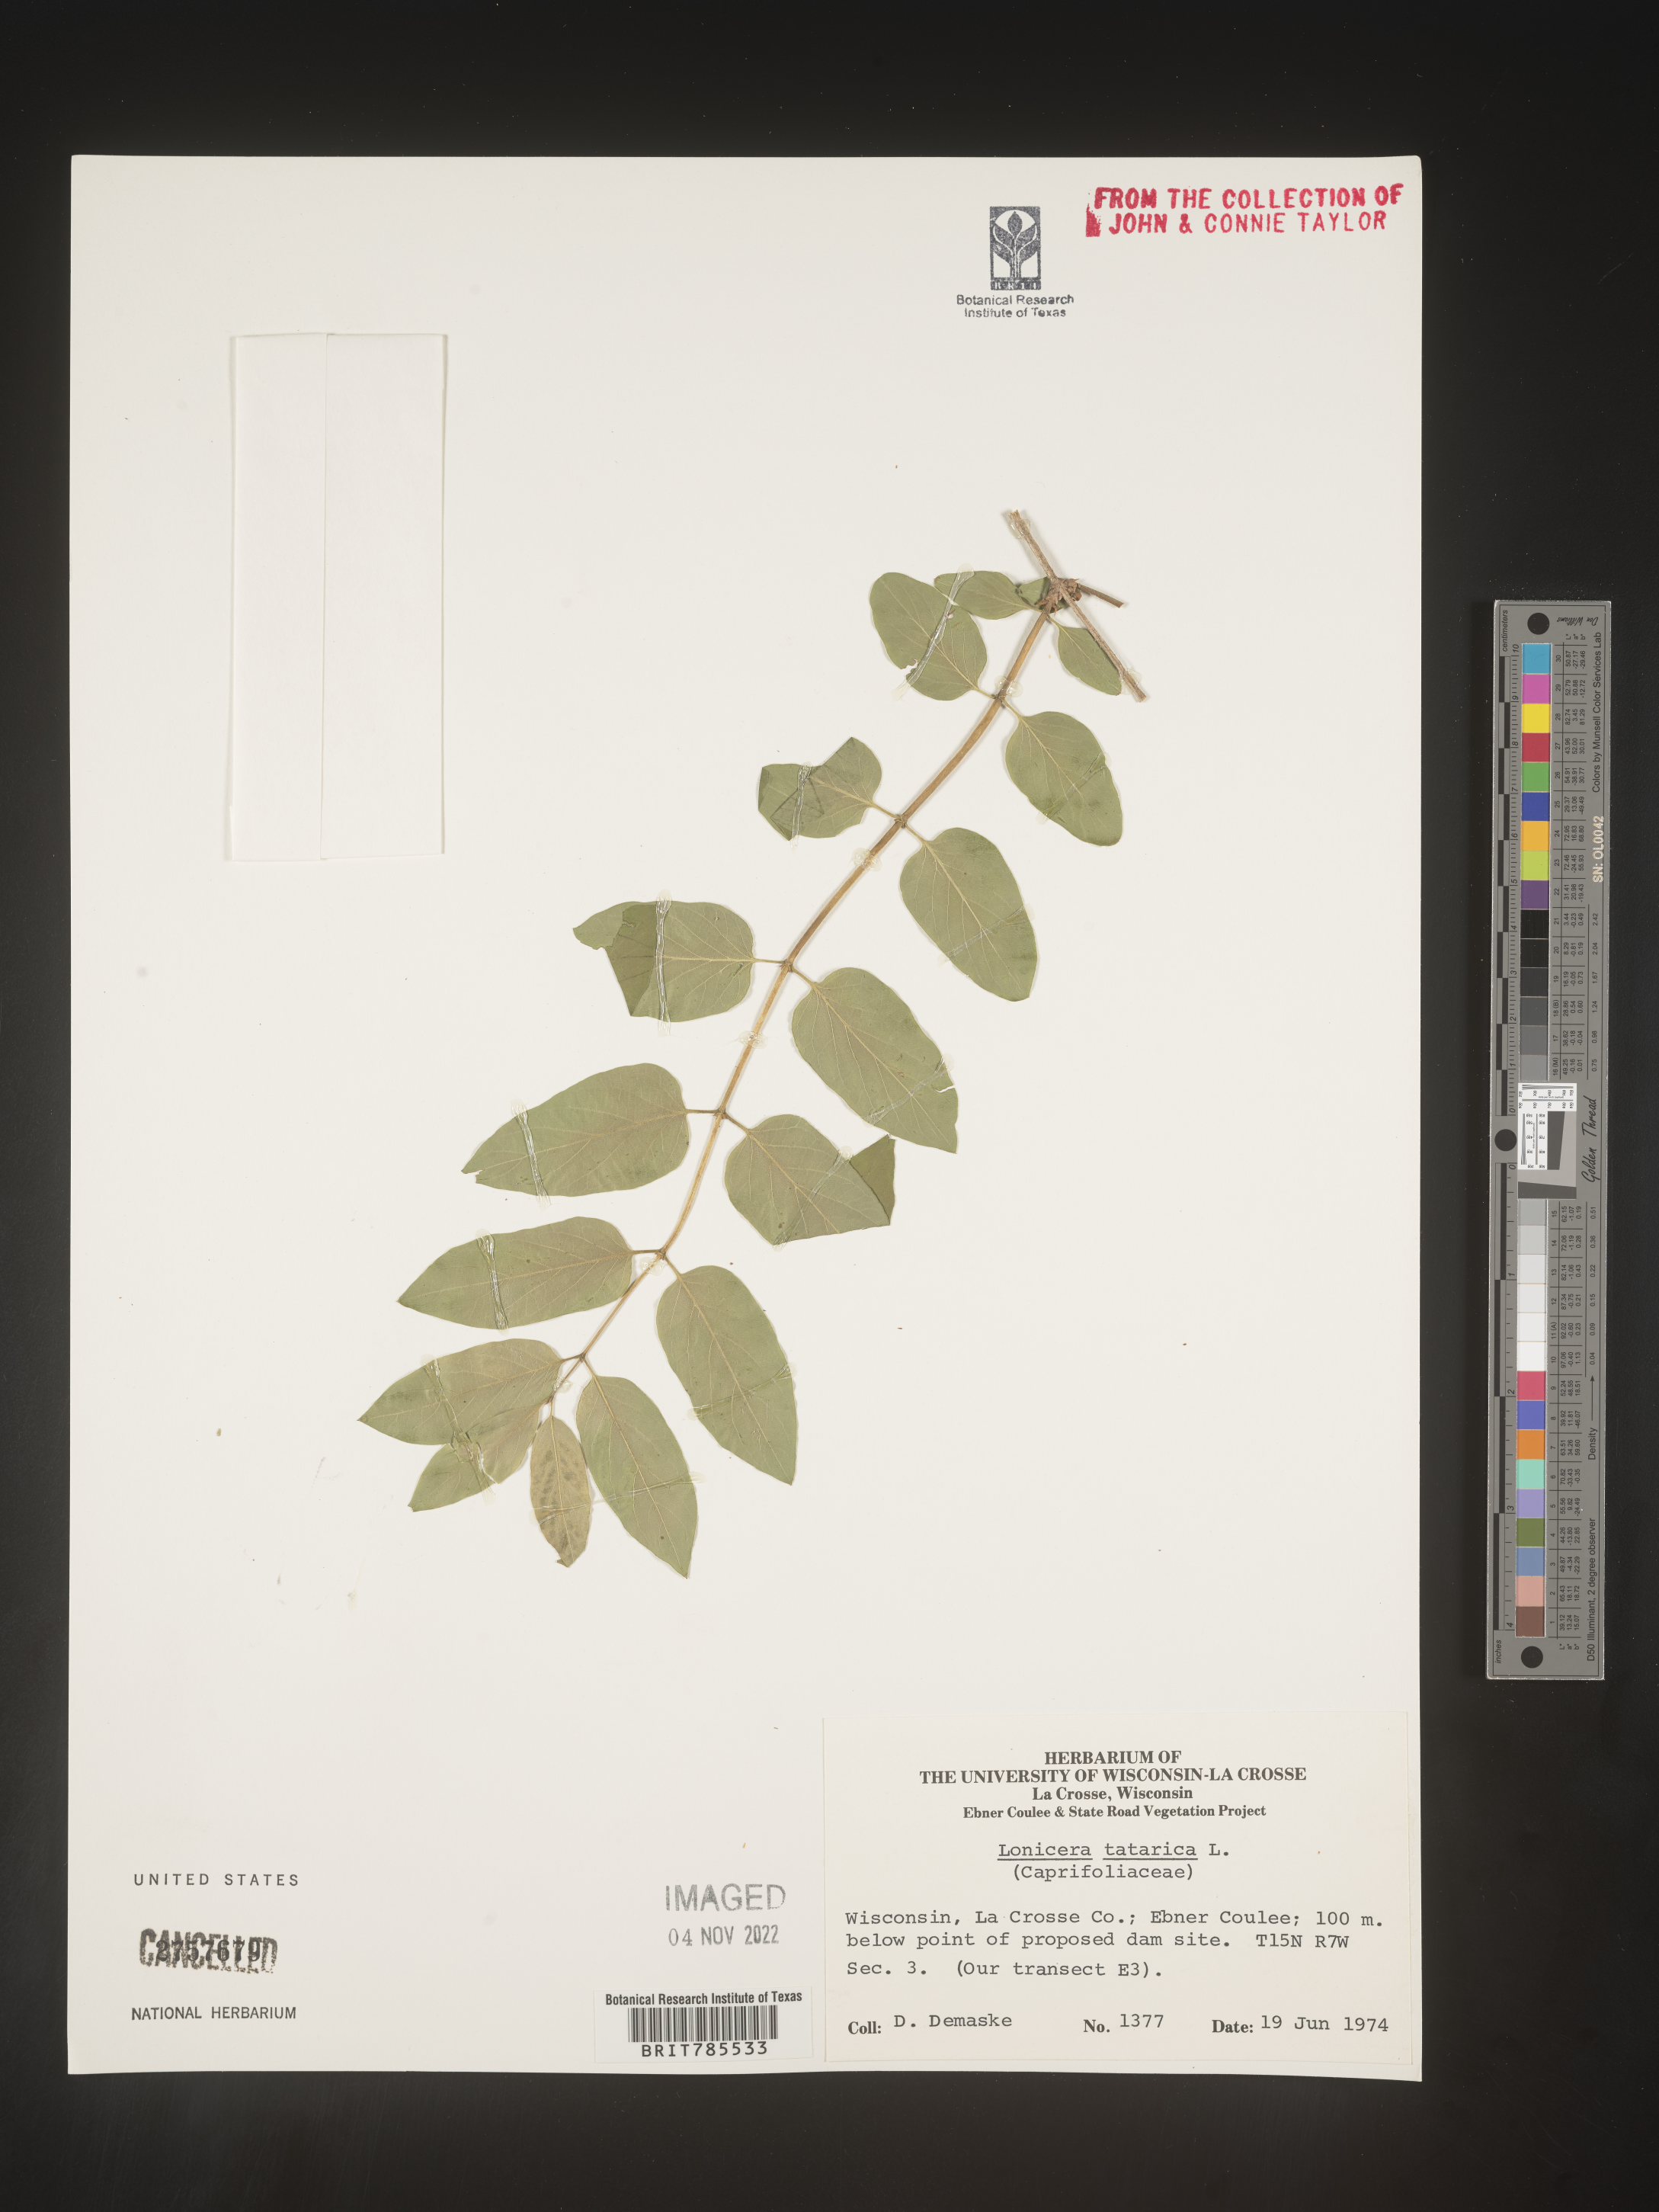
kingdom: Plantae
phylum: Tracheophyta
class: Magnoliopsida
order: Dipsacales
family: Caprifoliaceae
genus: Lonicera
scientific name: Lonicera
